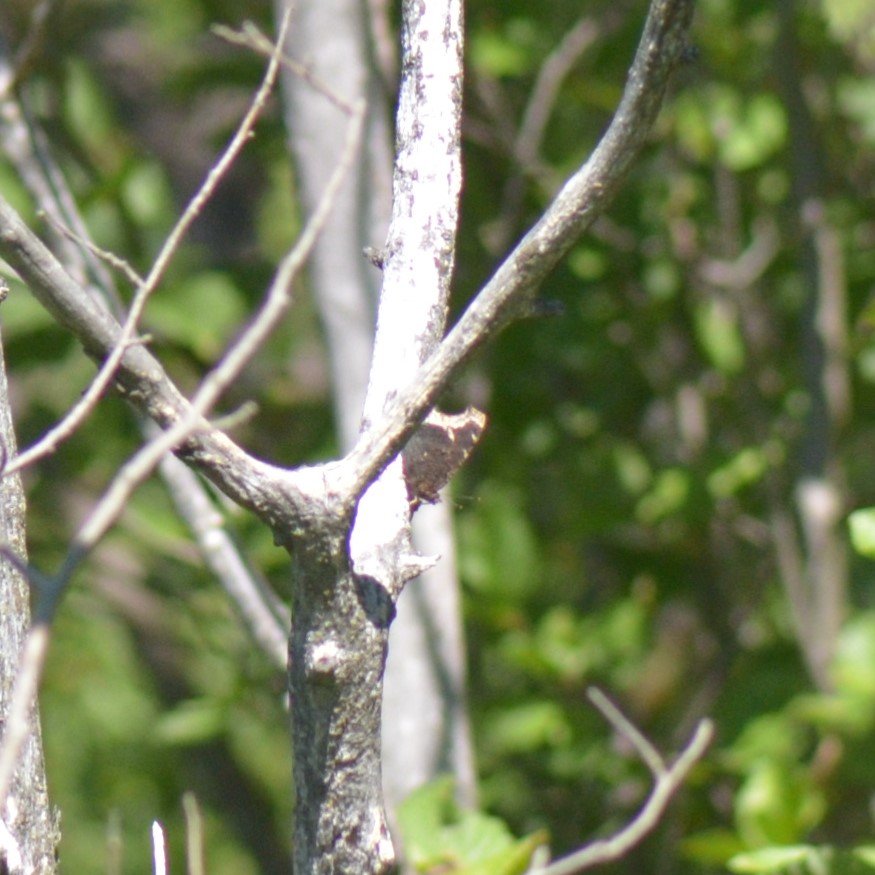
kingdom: Animalia
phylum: Arthropoda
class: Insecta
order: Lepidoptera
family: Nymphalidae
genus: Nymphalis
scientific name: Nymphalis antiopa
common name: Mourning Cloak
